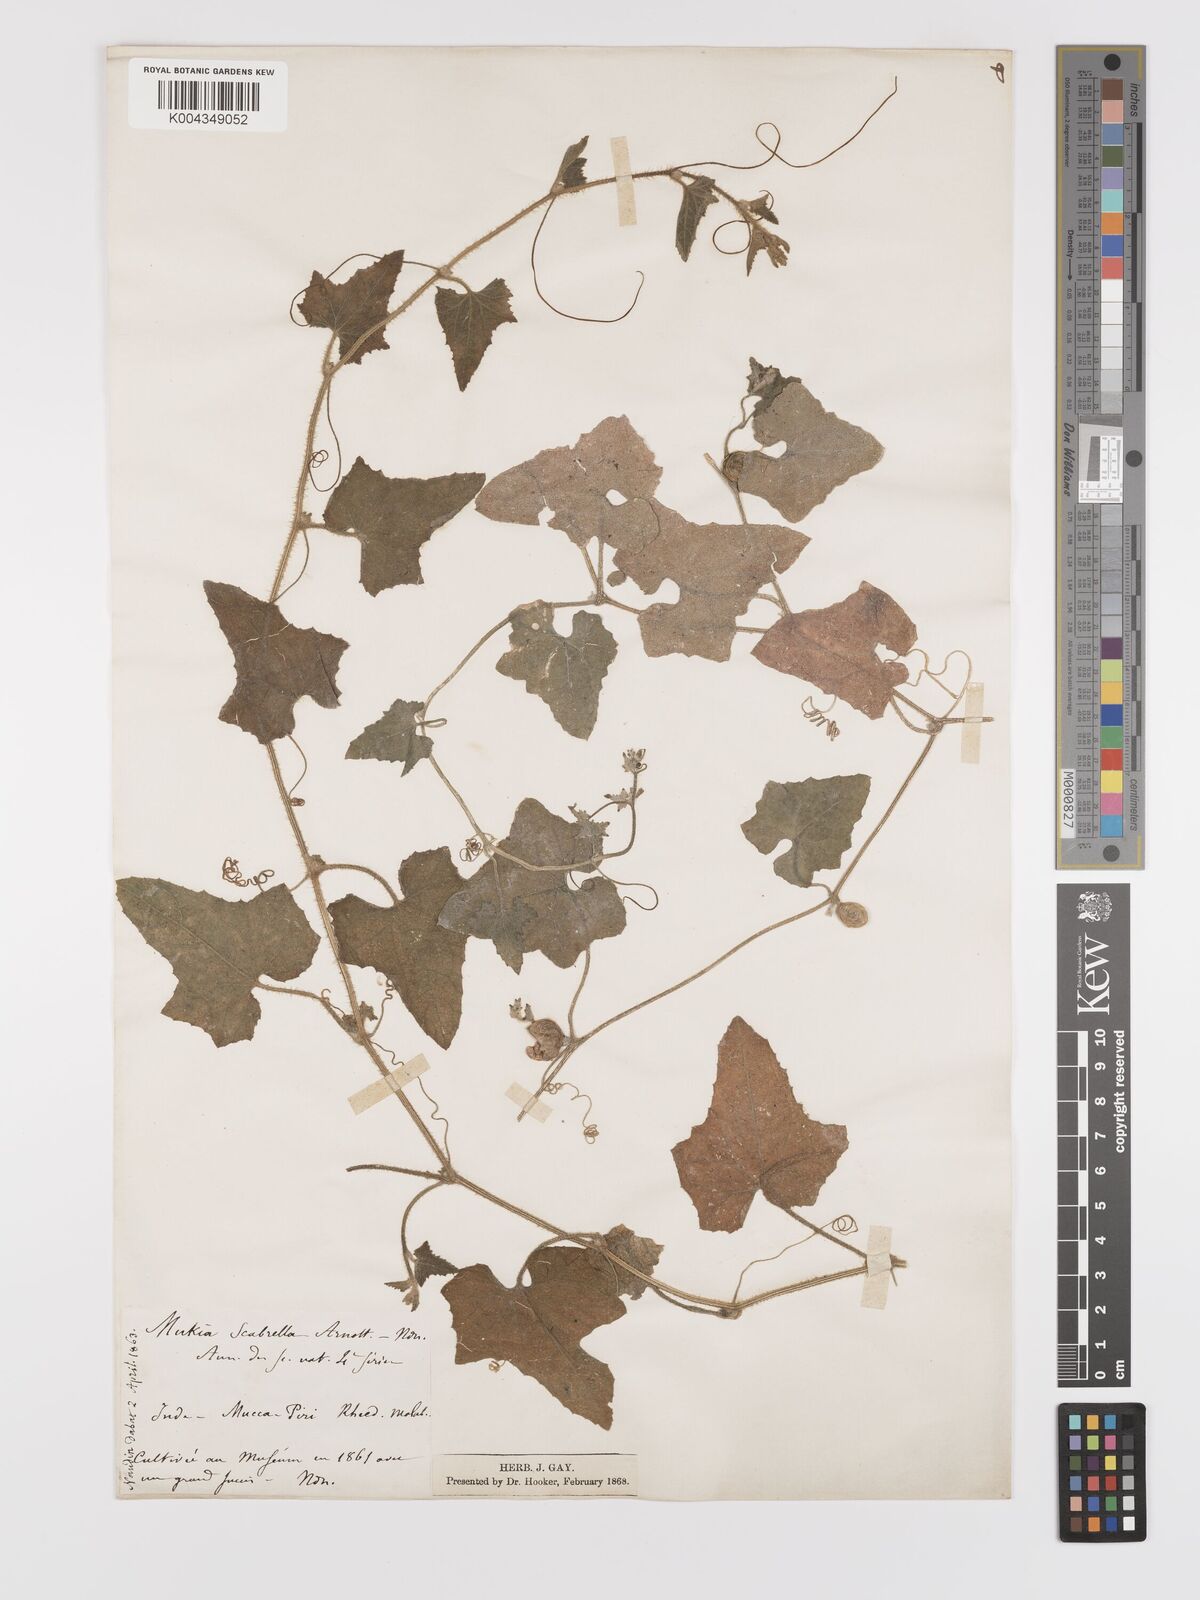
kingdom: Plantae
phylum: Tracheophyta
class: Magnoliopsida
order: Cucurbitales
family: Cucurbitaceae
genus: Cucumis
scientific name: Cucumis maderaspatanus
